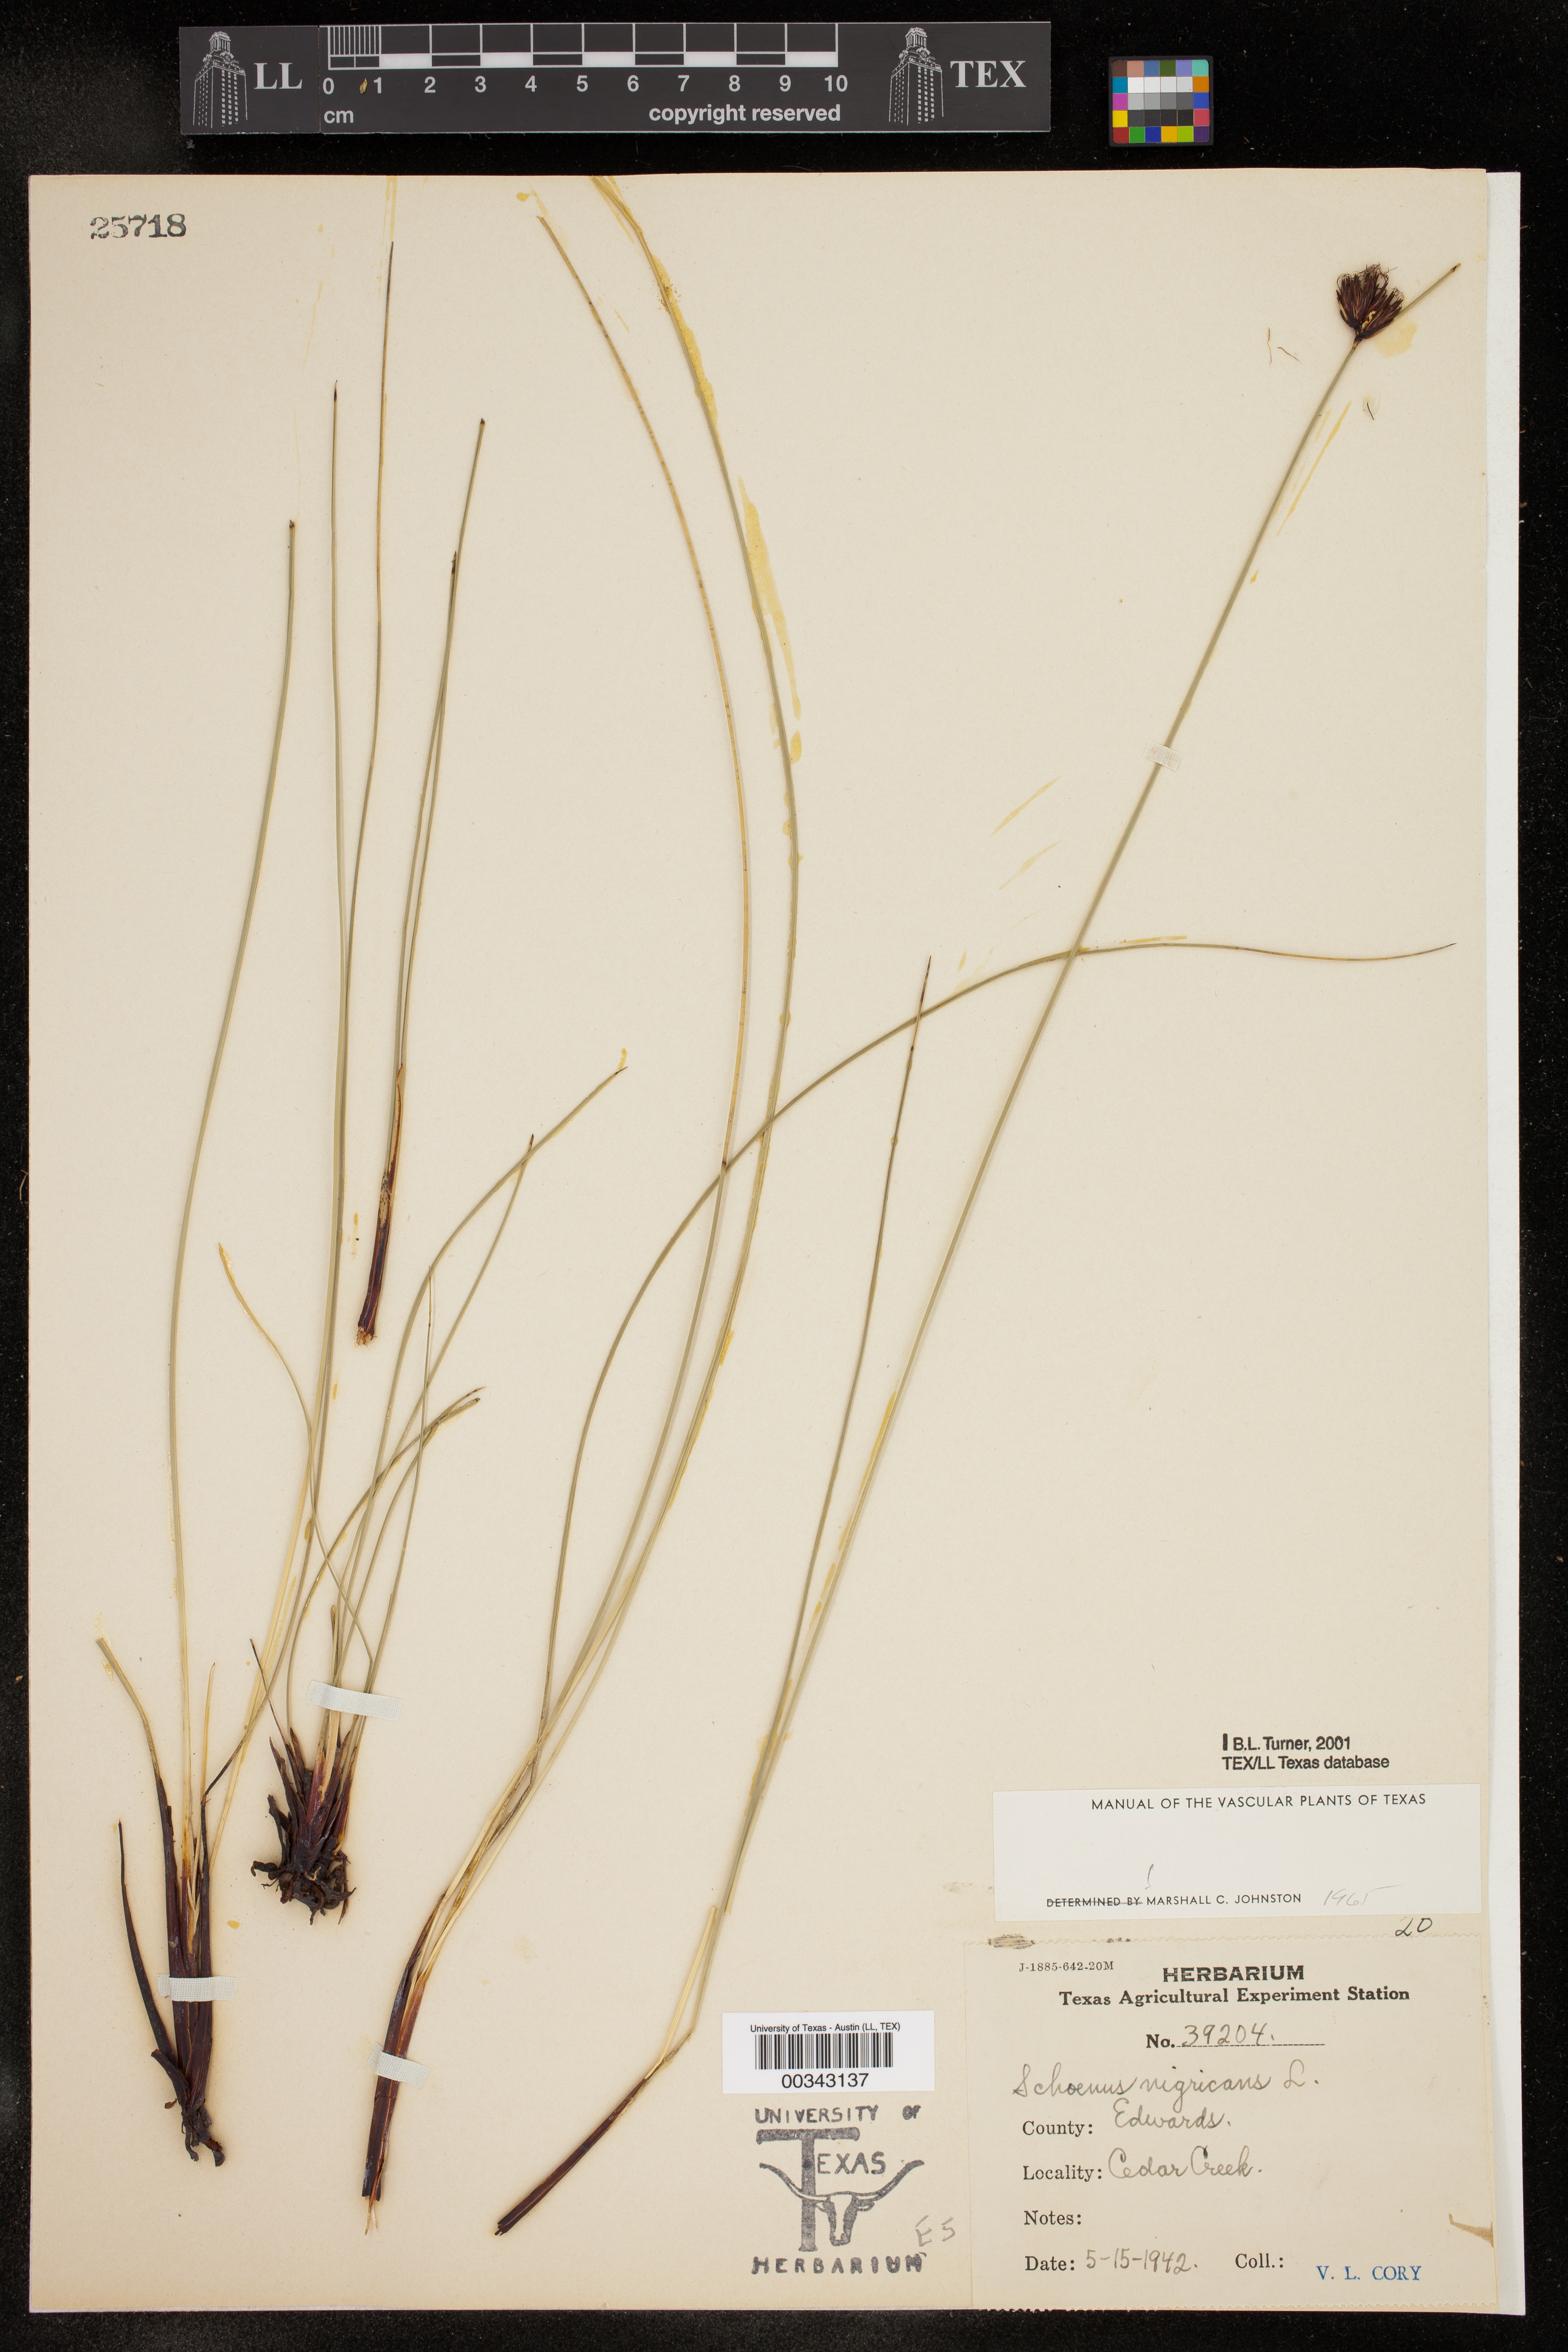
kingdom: Plantae
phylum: Tracheophyta
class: Liliopsida
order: Poales
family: Cyperaceae
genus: Schoenus
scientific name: Schoenus nigricans
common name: Black bog-rush
